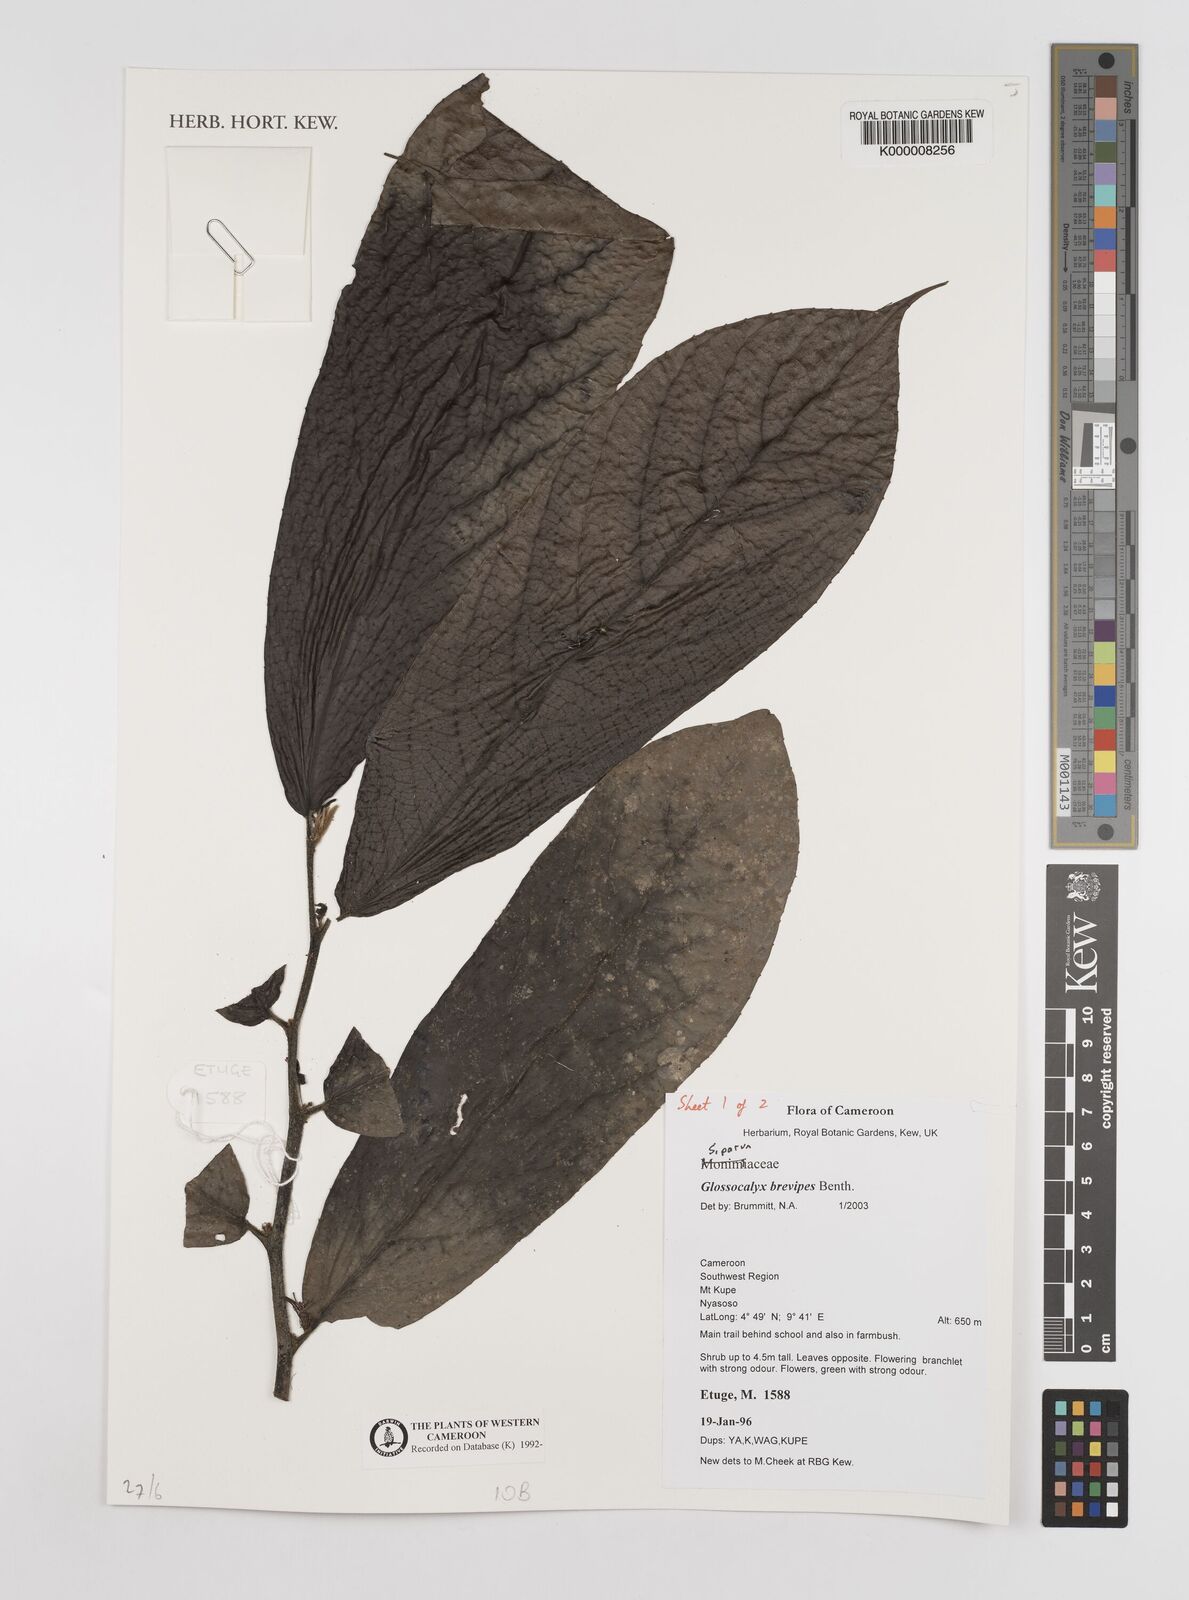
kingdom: Plantae
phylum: Tracheophyta
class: Magnoliopsida
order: Laurales
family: Siparunaceae
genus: Glossocalyx
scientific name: Glossocalyx brevipes
